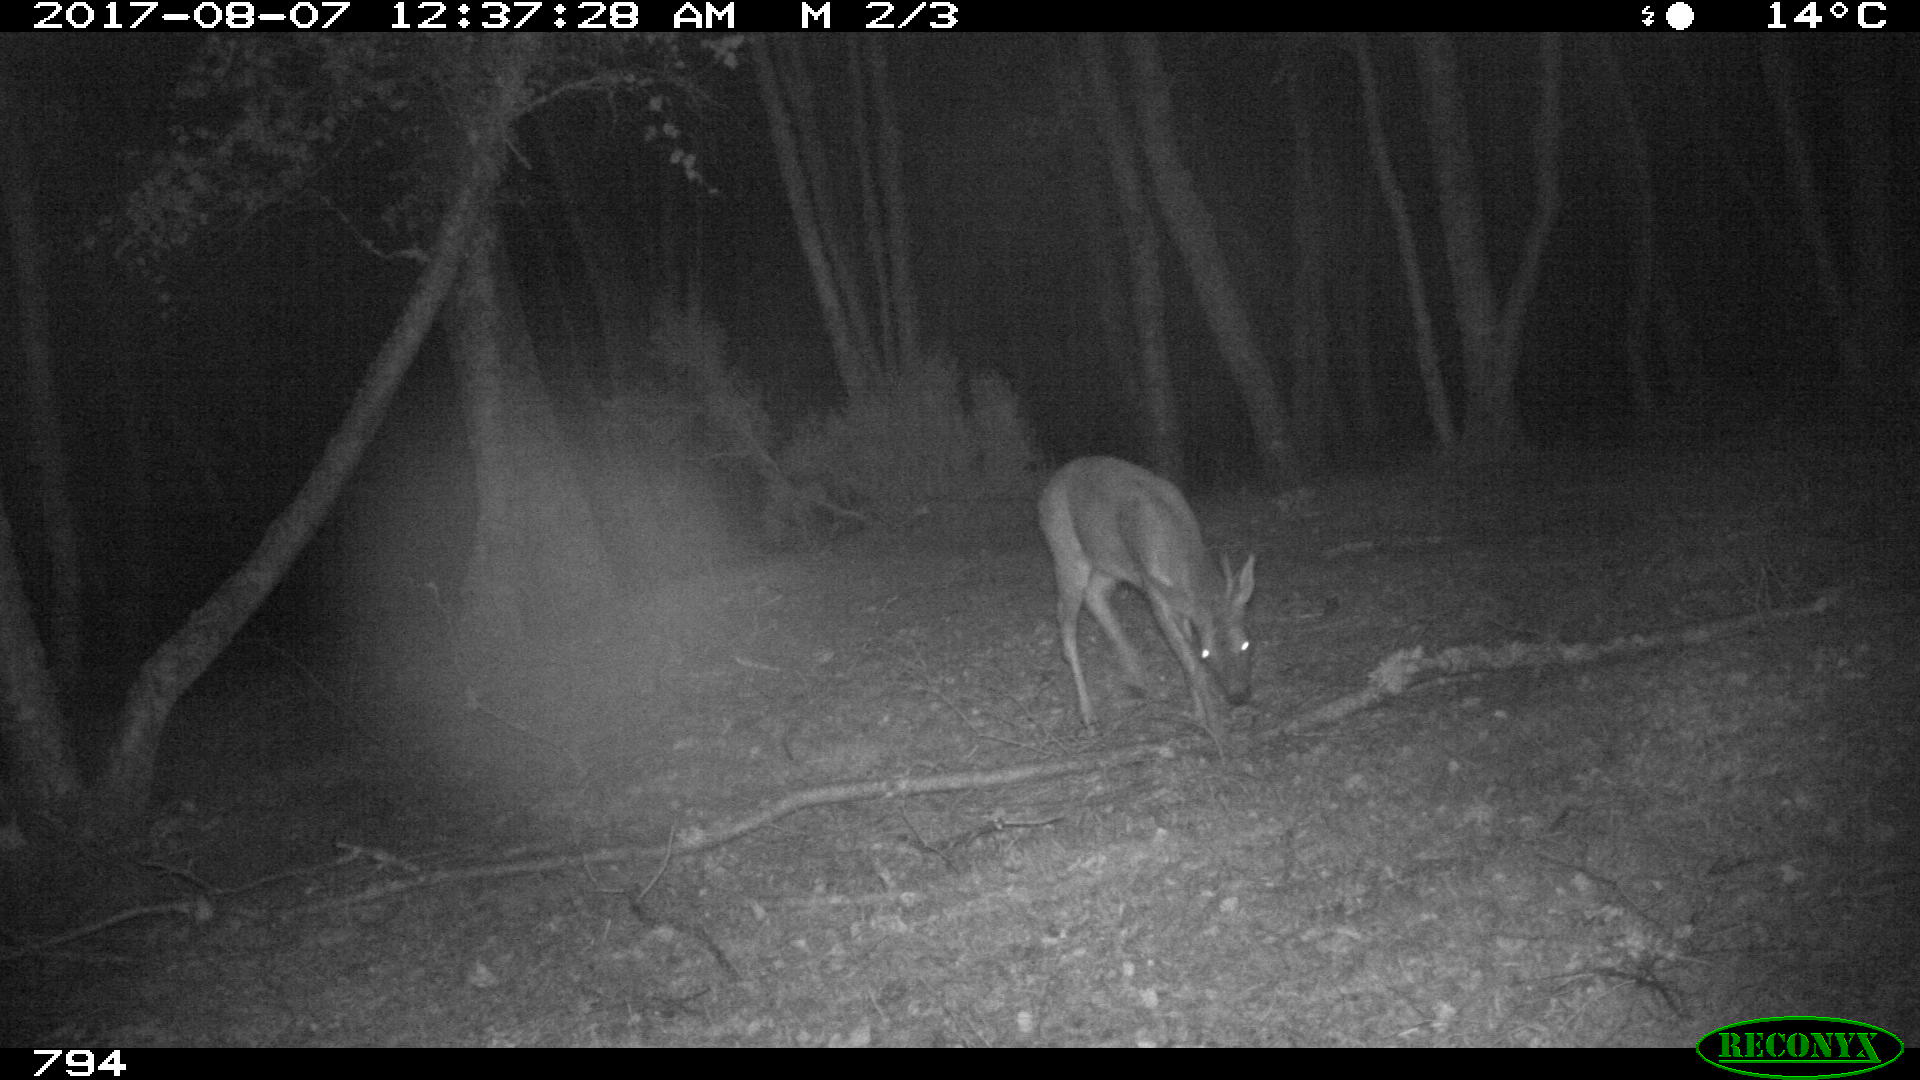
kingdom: Animalia
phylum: Chordata
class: Mammalia
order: Artiodactyla
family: Cervidae
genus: Capreolus
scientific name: Capreolus capreolus
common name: Western roe deer
